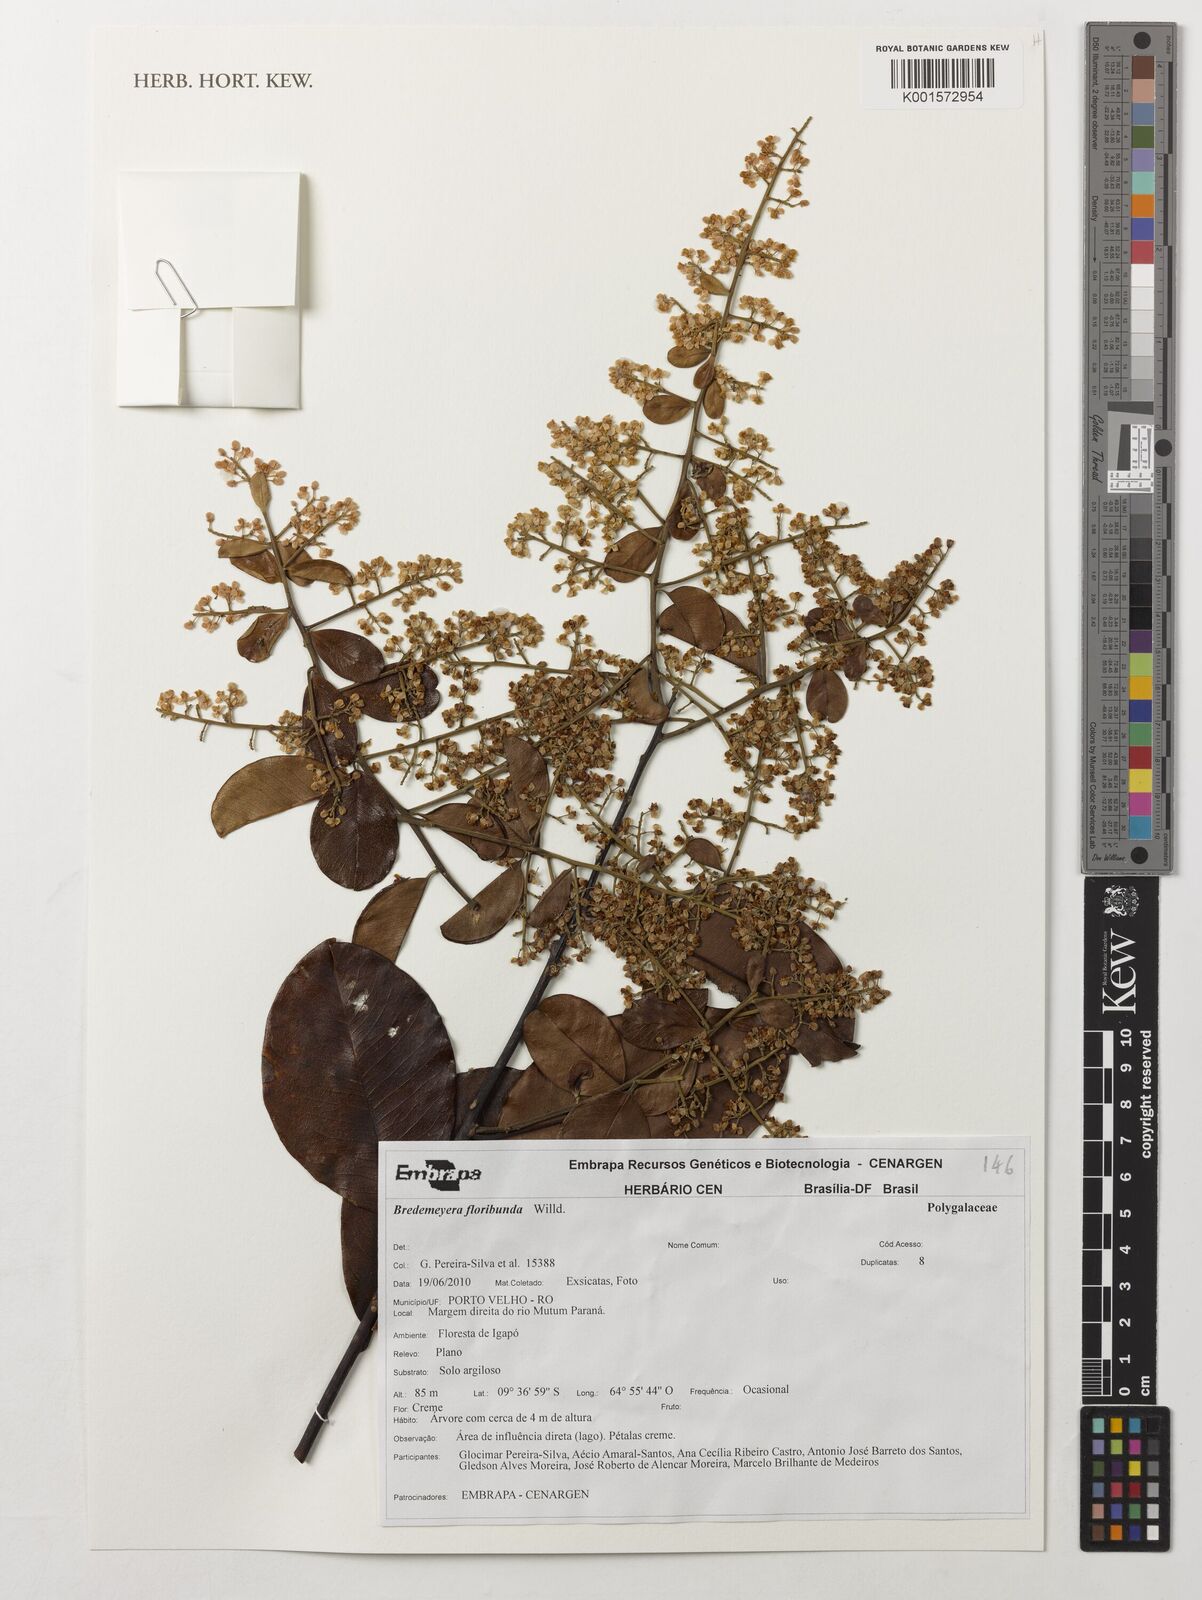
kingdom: Plantae
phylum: Tracheophyta
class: Magnoliopsida
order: Fabales
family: Polygalaceae
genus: Bredemeyera
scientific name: Bredemeyera floribunda
